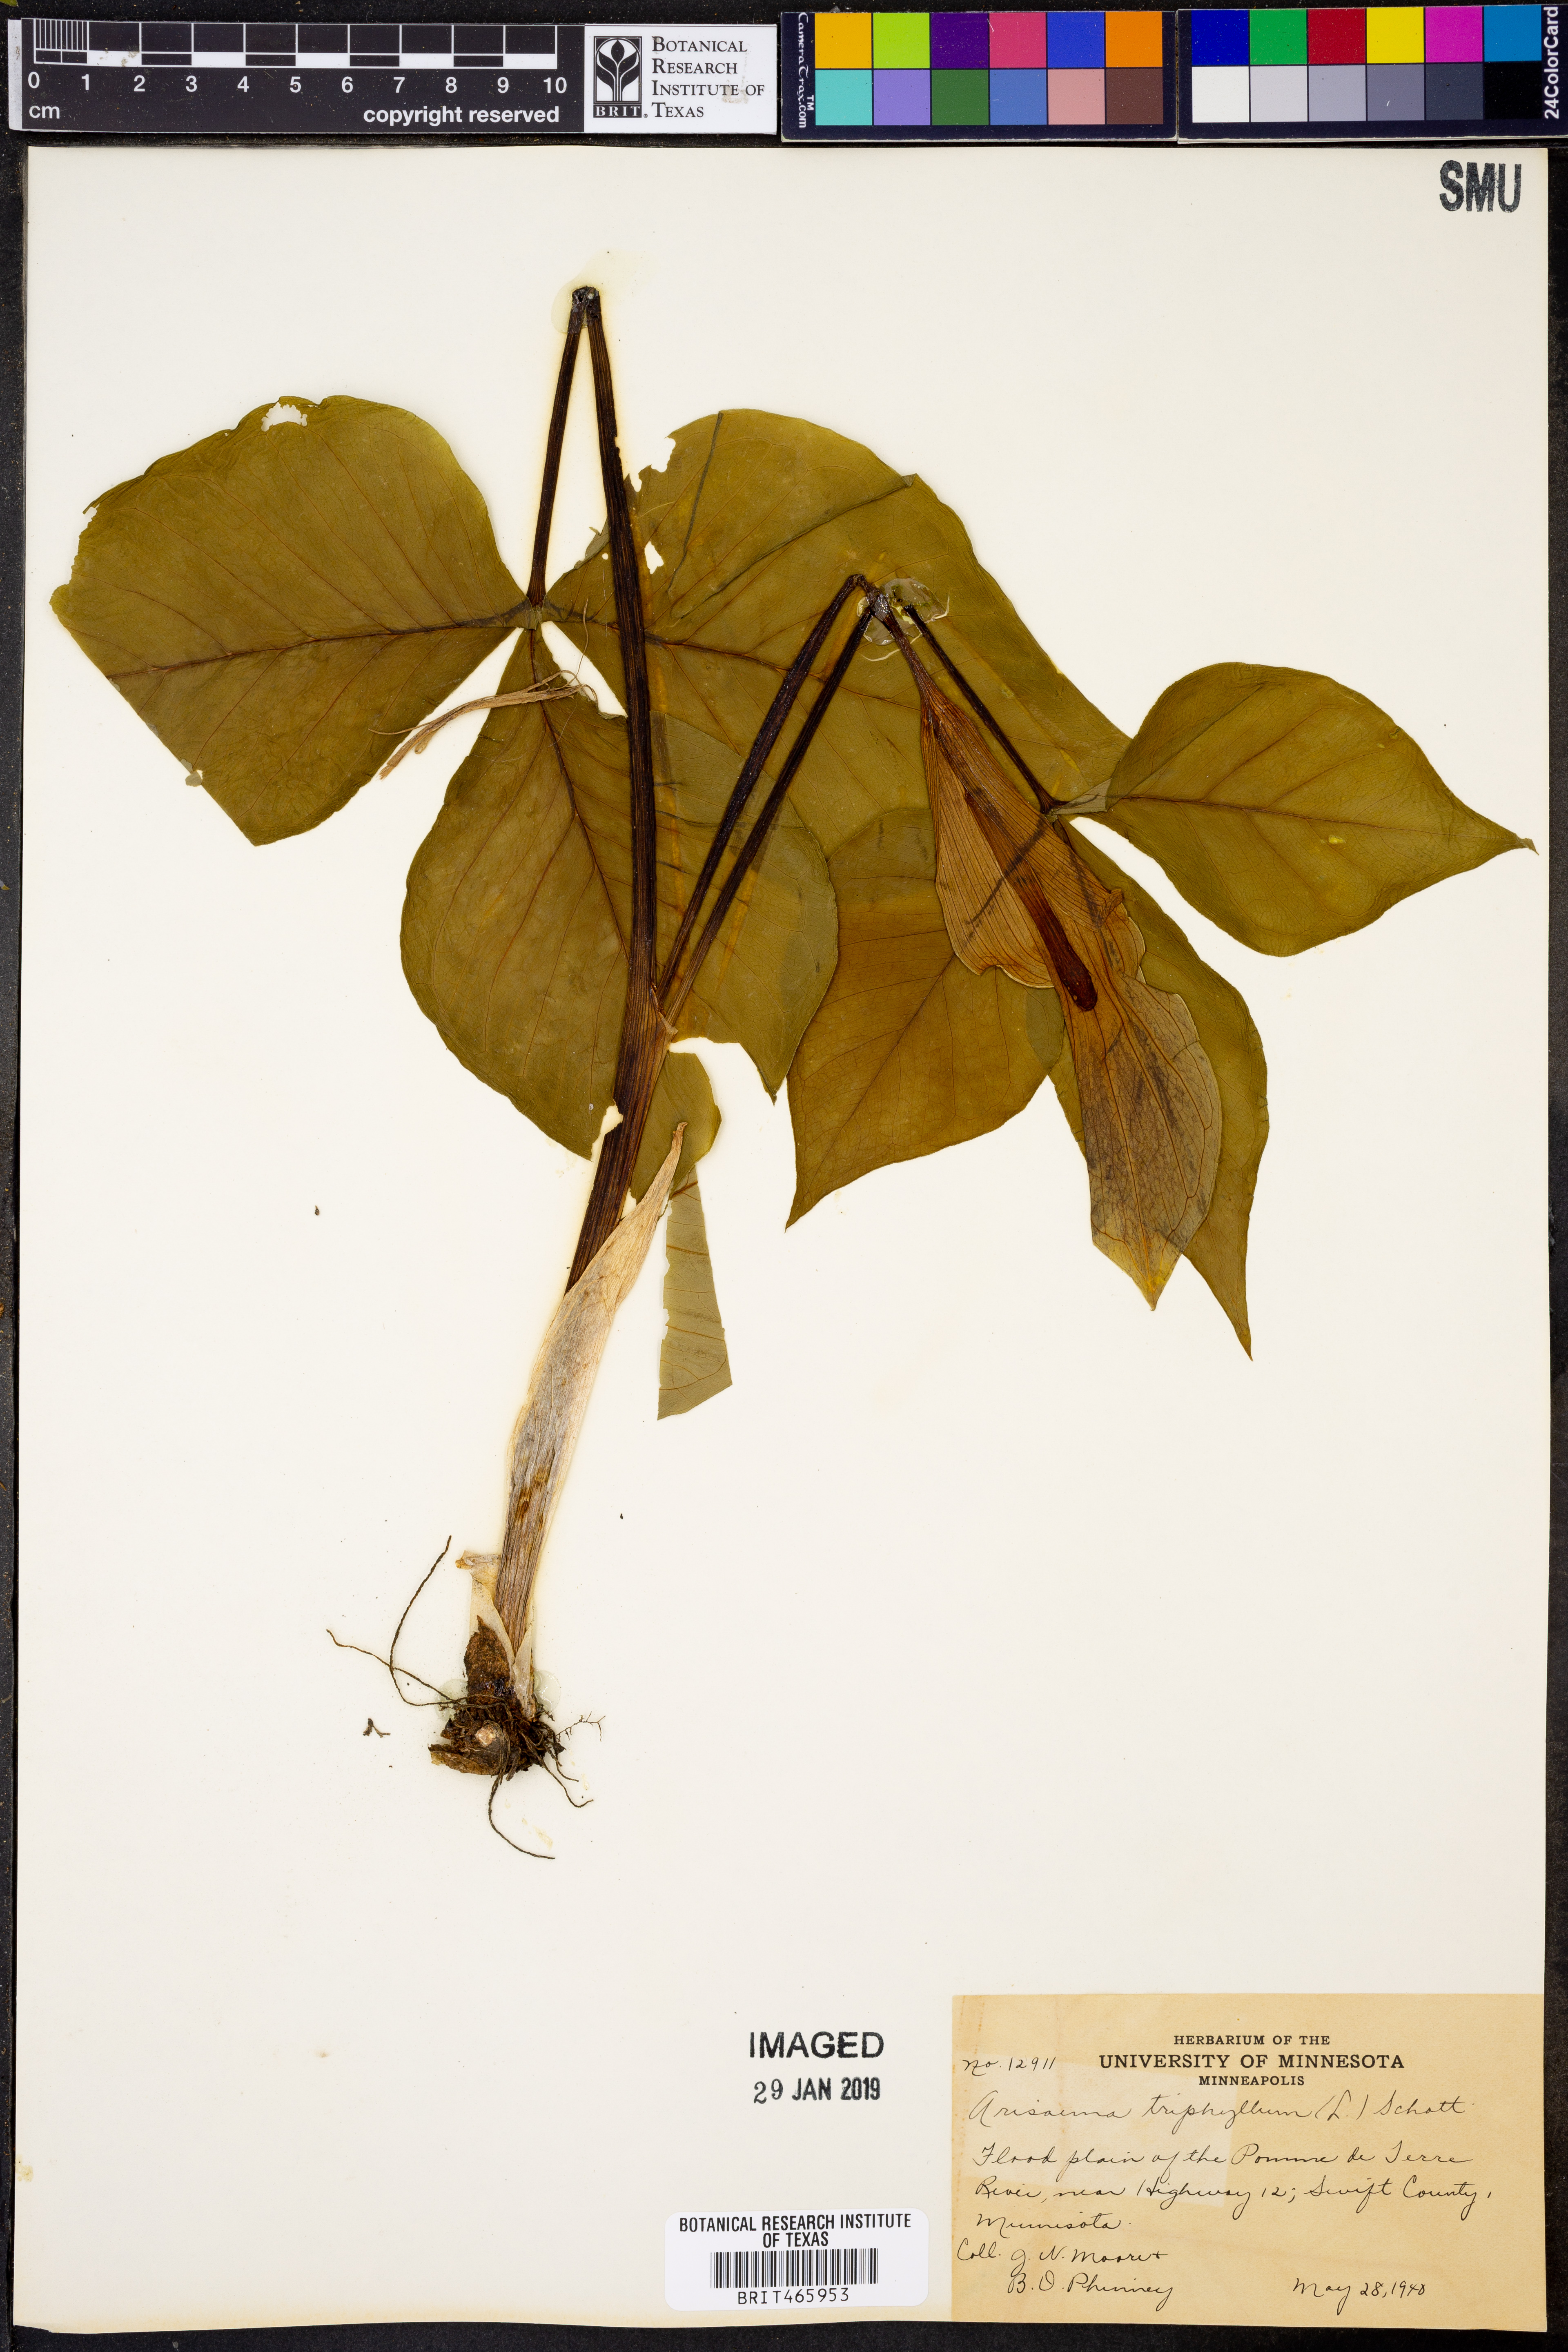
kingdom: Plantae
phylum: Tracheophyta
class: Liliopsida
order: Alismatales
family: Araceae
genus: Arisaema
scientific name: Arisaema triphyllum
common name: Jack-in-the-pulpit
